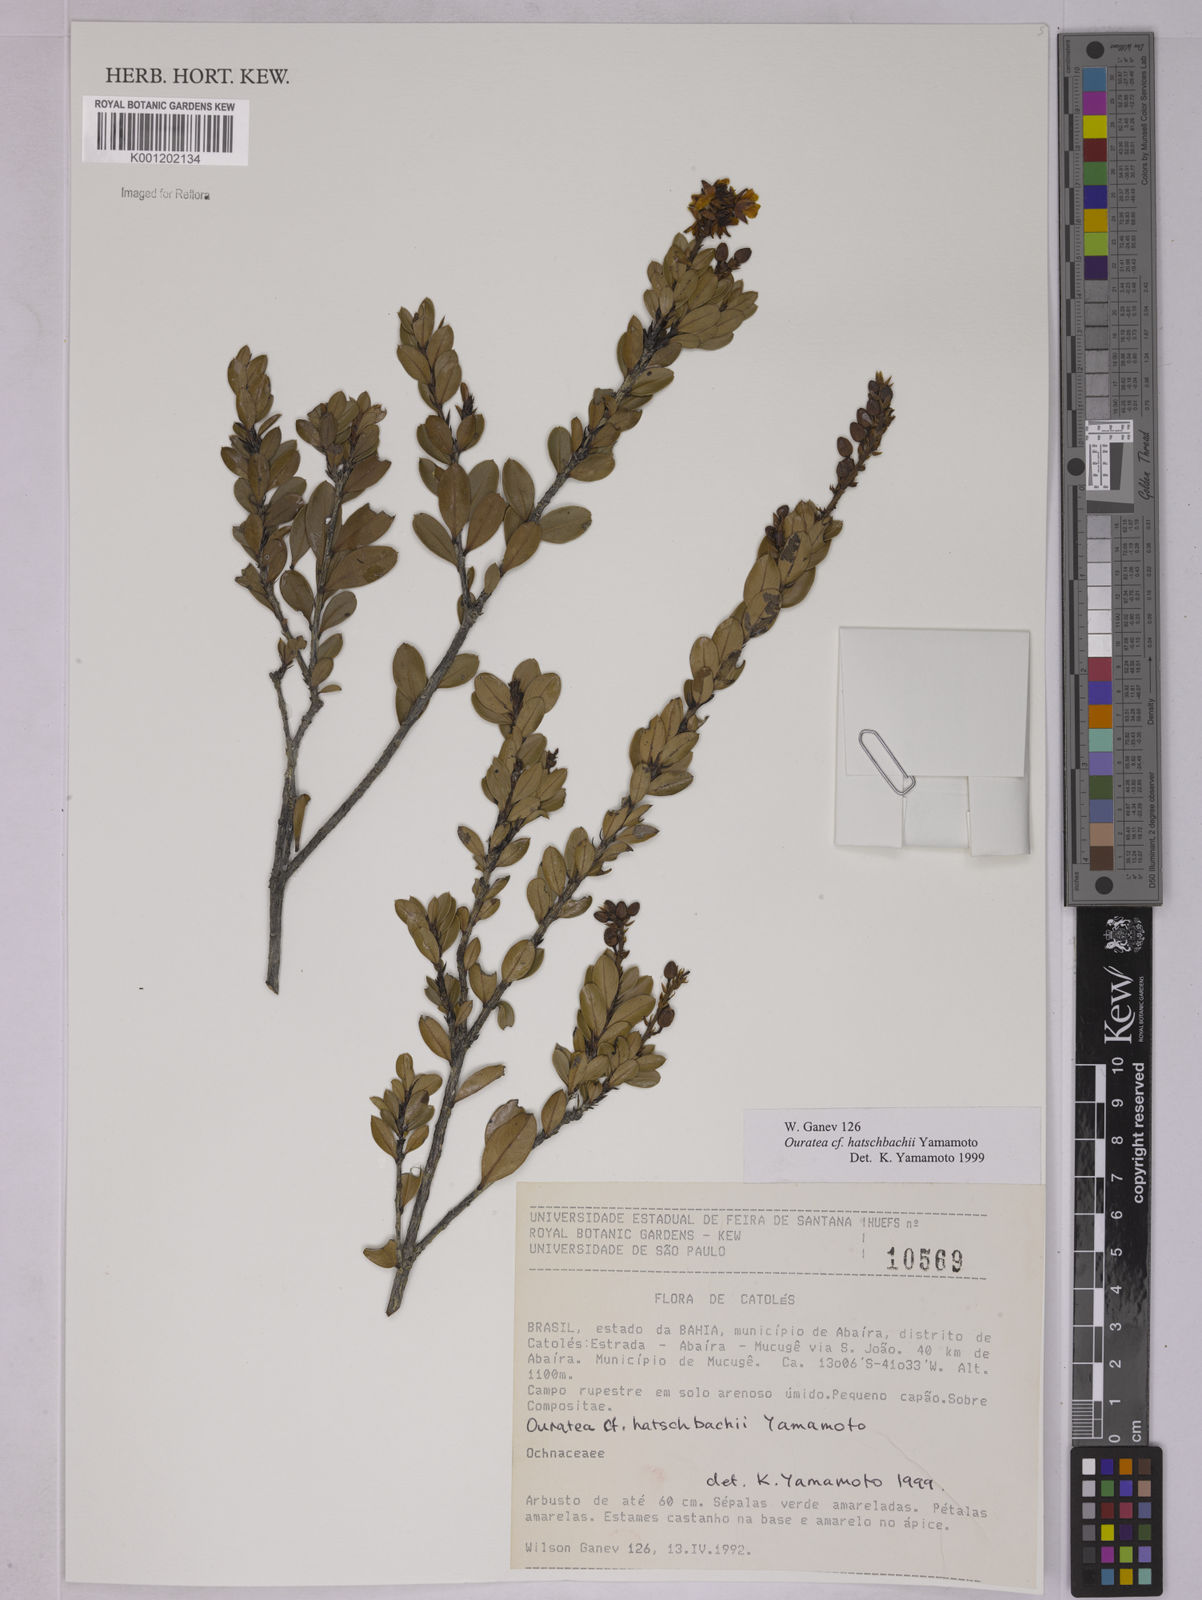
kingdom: Plantae
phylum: Tracheophyta
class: Magnoliopsida
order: Malpighiales
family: Ochnaceae
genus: Ouratea
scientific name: Ouratea hatschbachii
